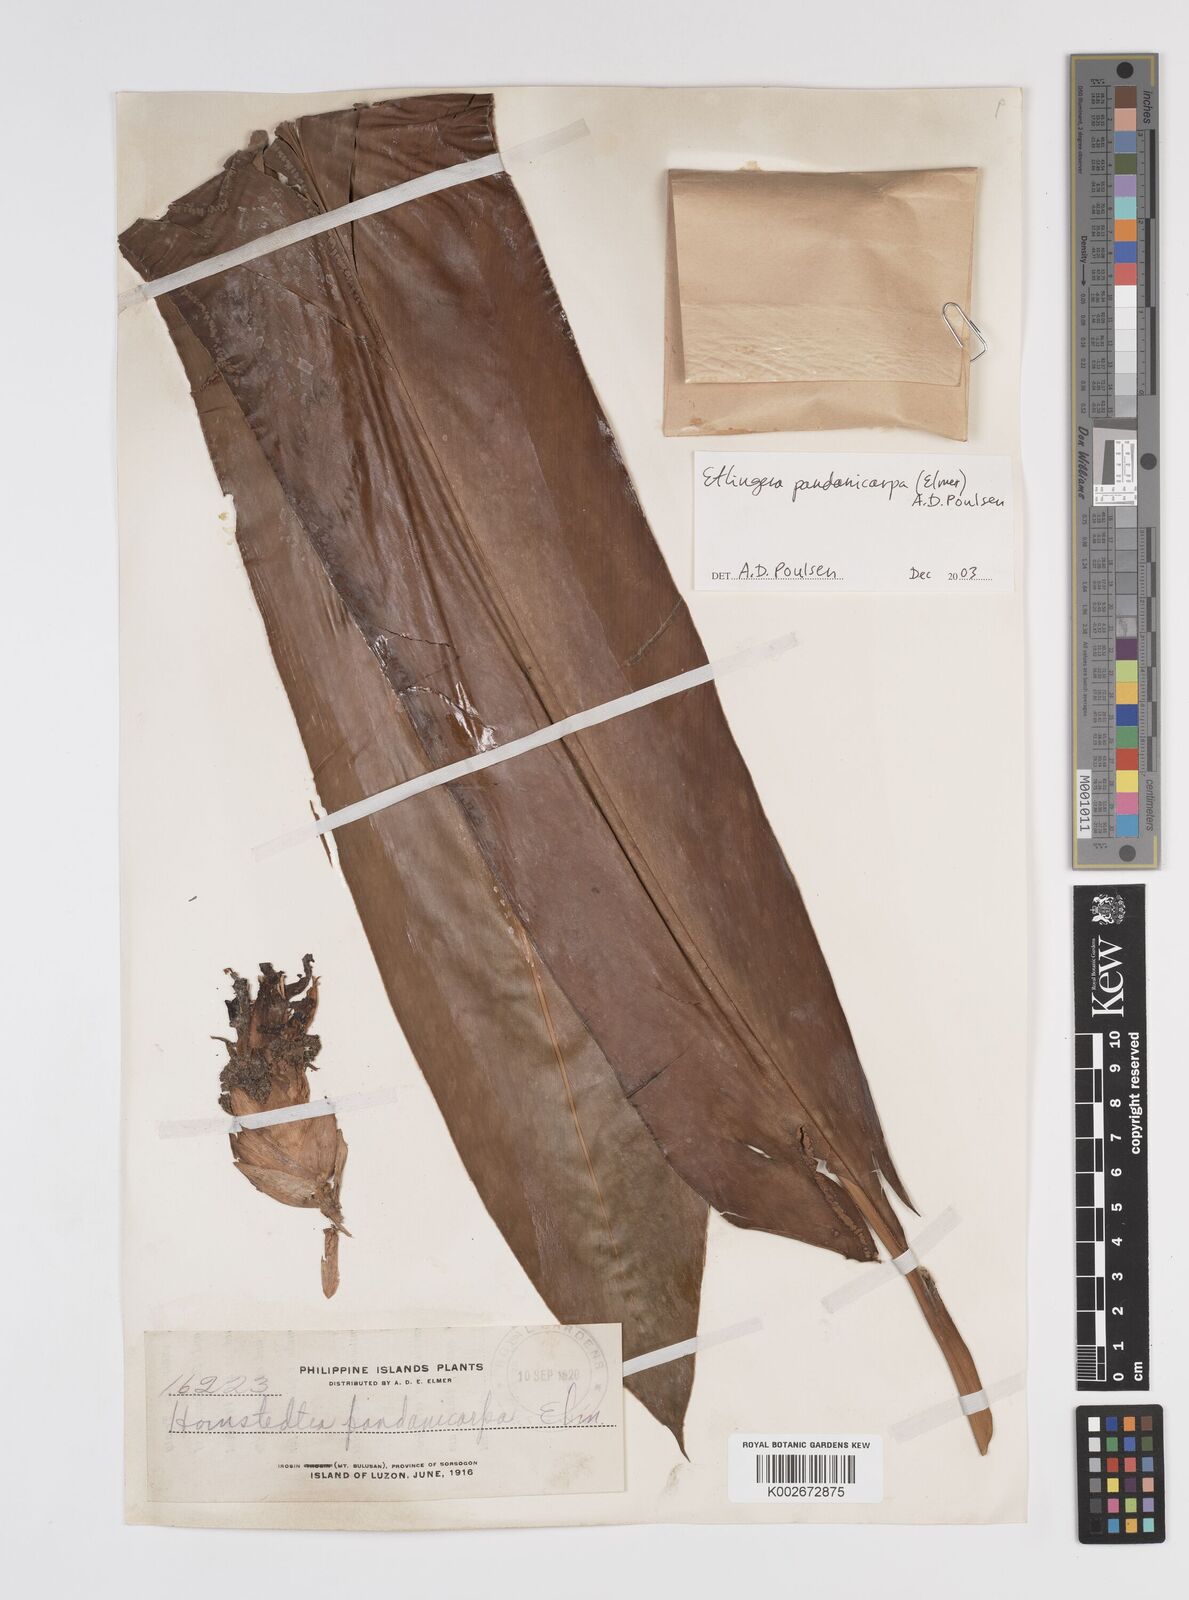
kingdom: Plantae
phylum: Tracheophyta
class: Liliopsida
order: Zingiberales
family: Zingiberaceae
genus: Etlingera
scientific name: Etlingera fimbriobracteata
